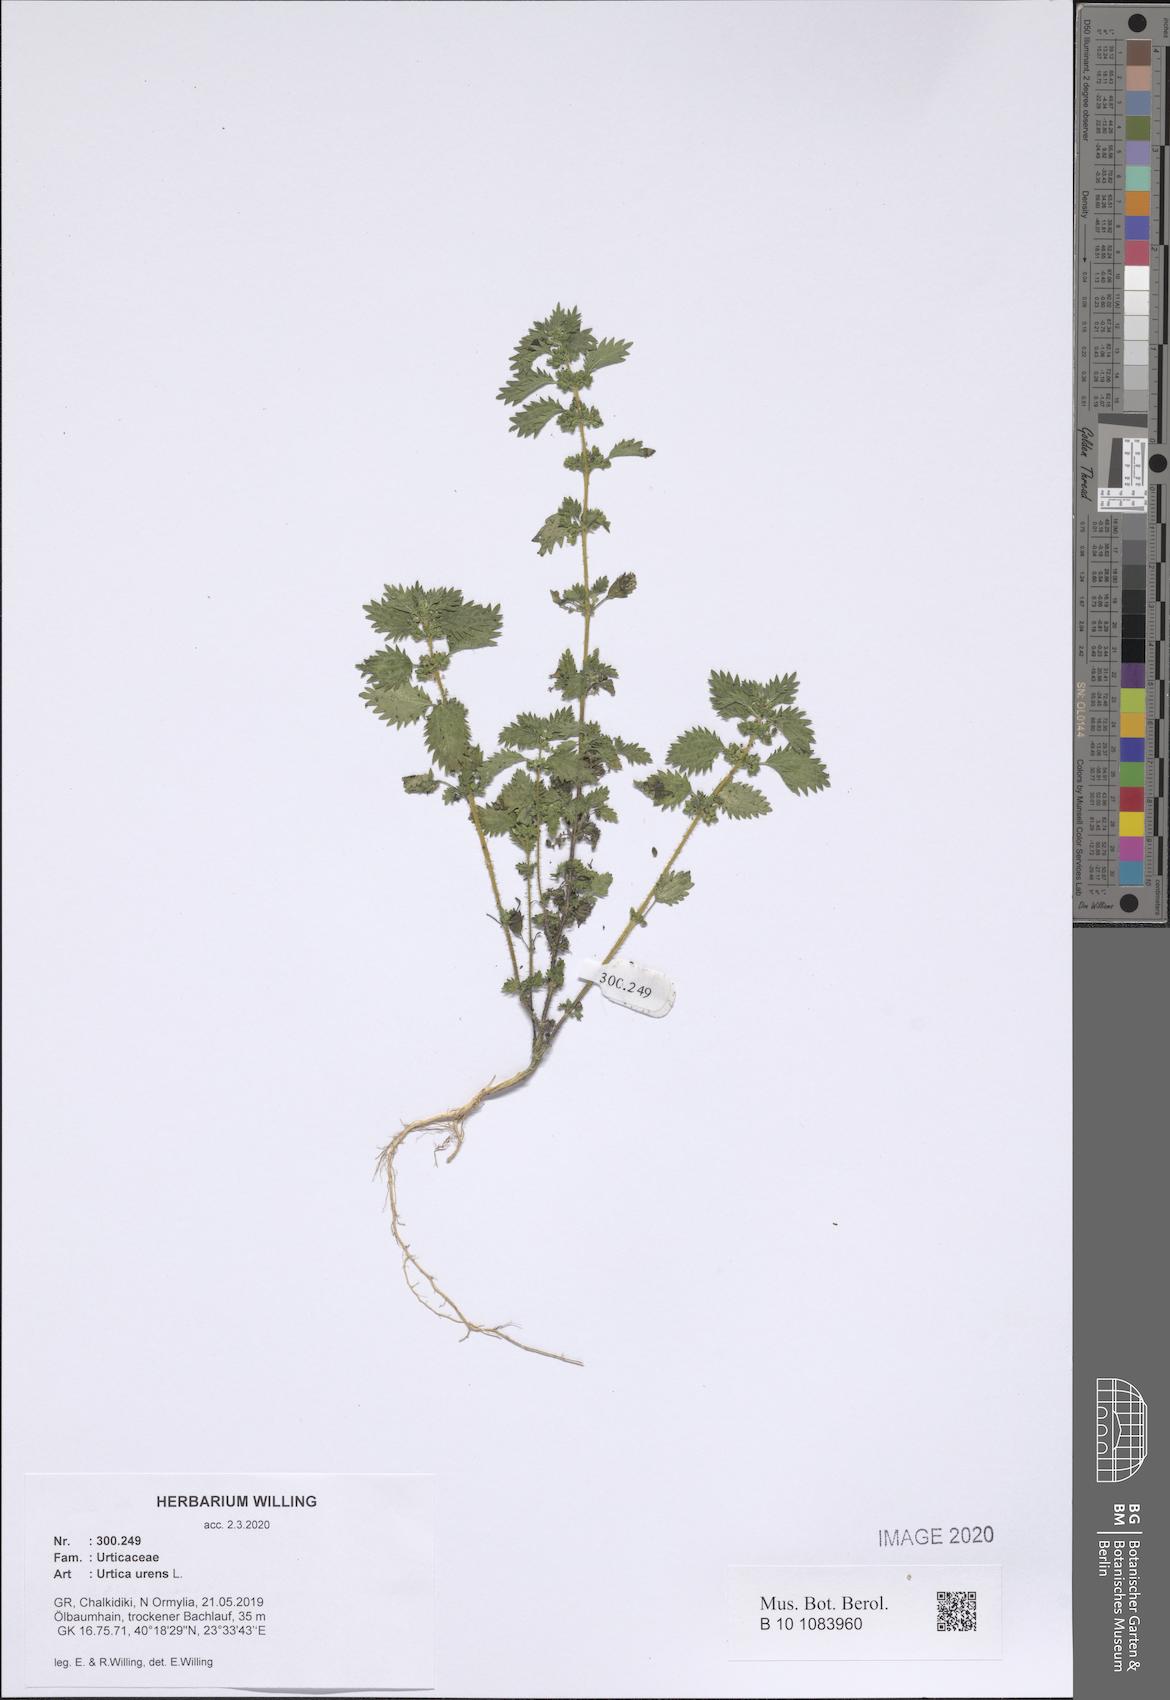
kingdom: Plantae
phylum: Tracheophyta
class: Magnoliopsida
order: Rosales
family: Urticaceae
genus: Urtica
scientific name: Urtica urens
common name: Dwarf nettle
